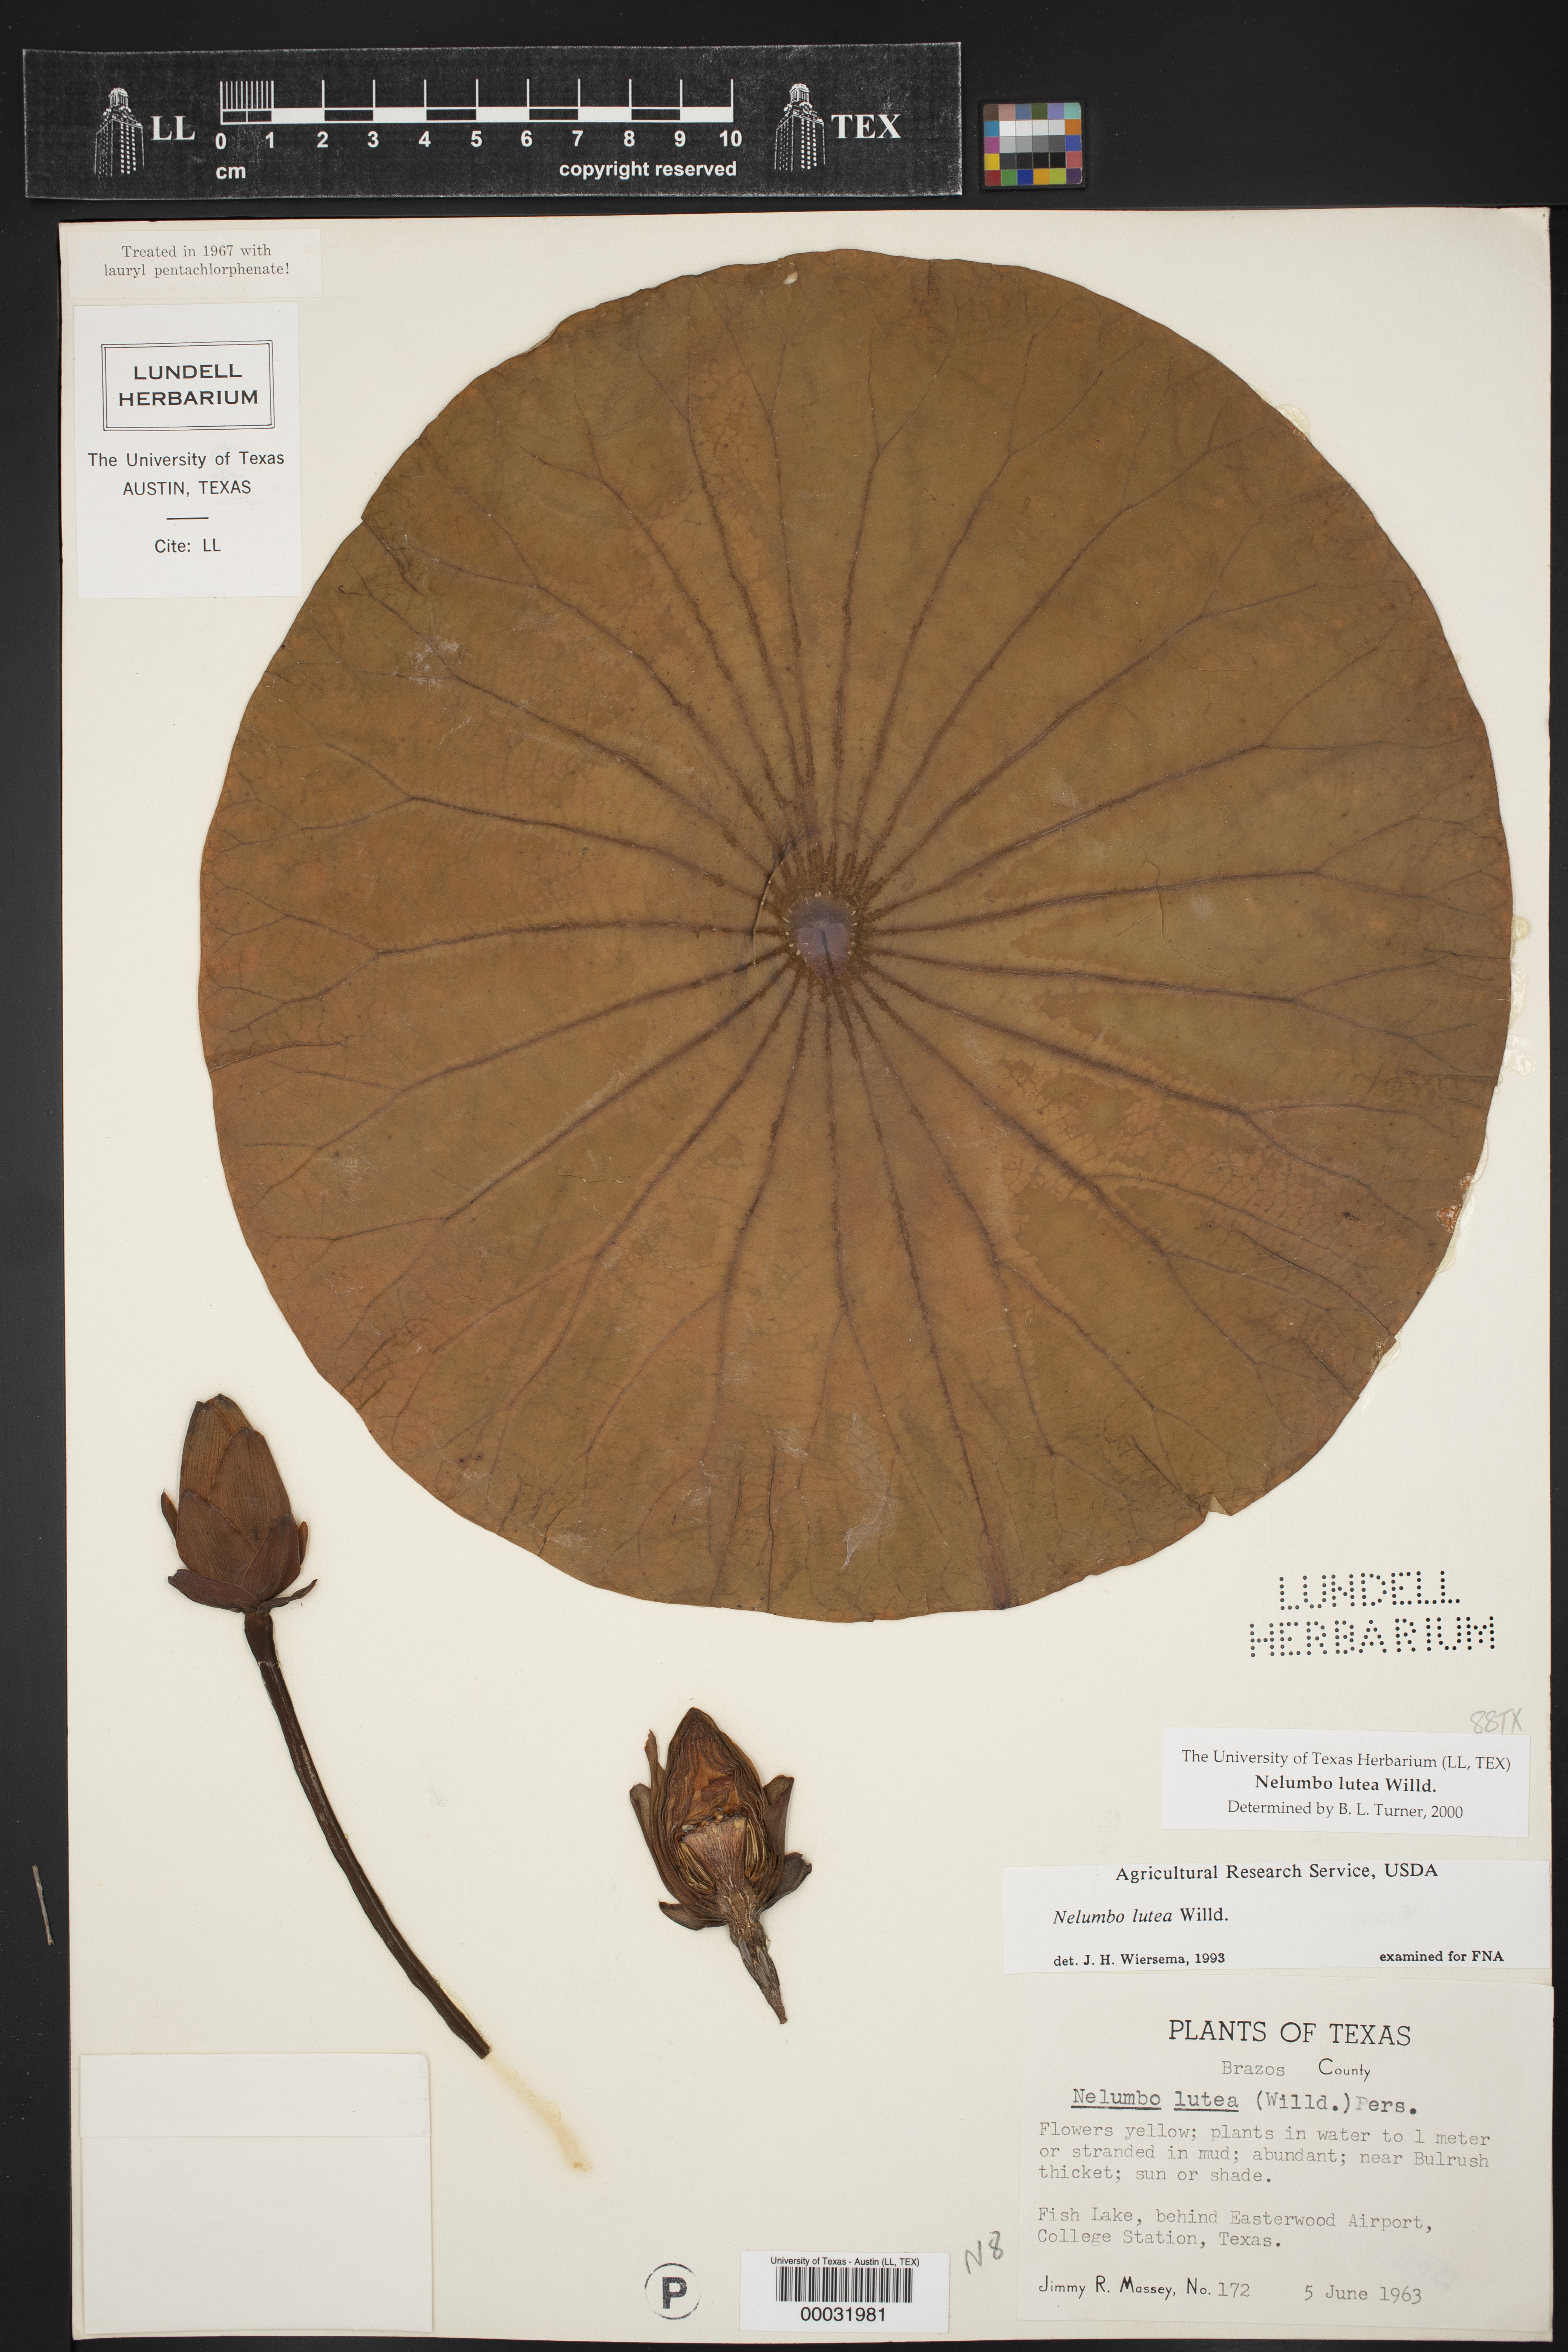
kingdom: Plantae
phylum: Tracheophyta
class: Magnoliopsida
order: Proteales
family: Nelumbonaceae
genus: Nelumbo
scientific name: Nelumbo lutea
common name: American lotus
